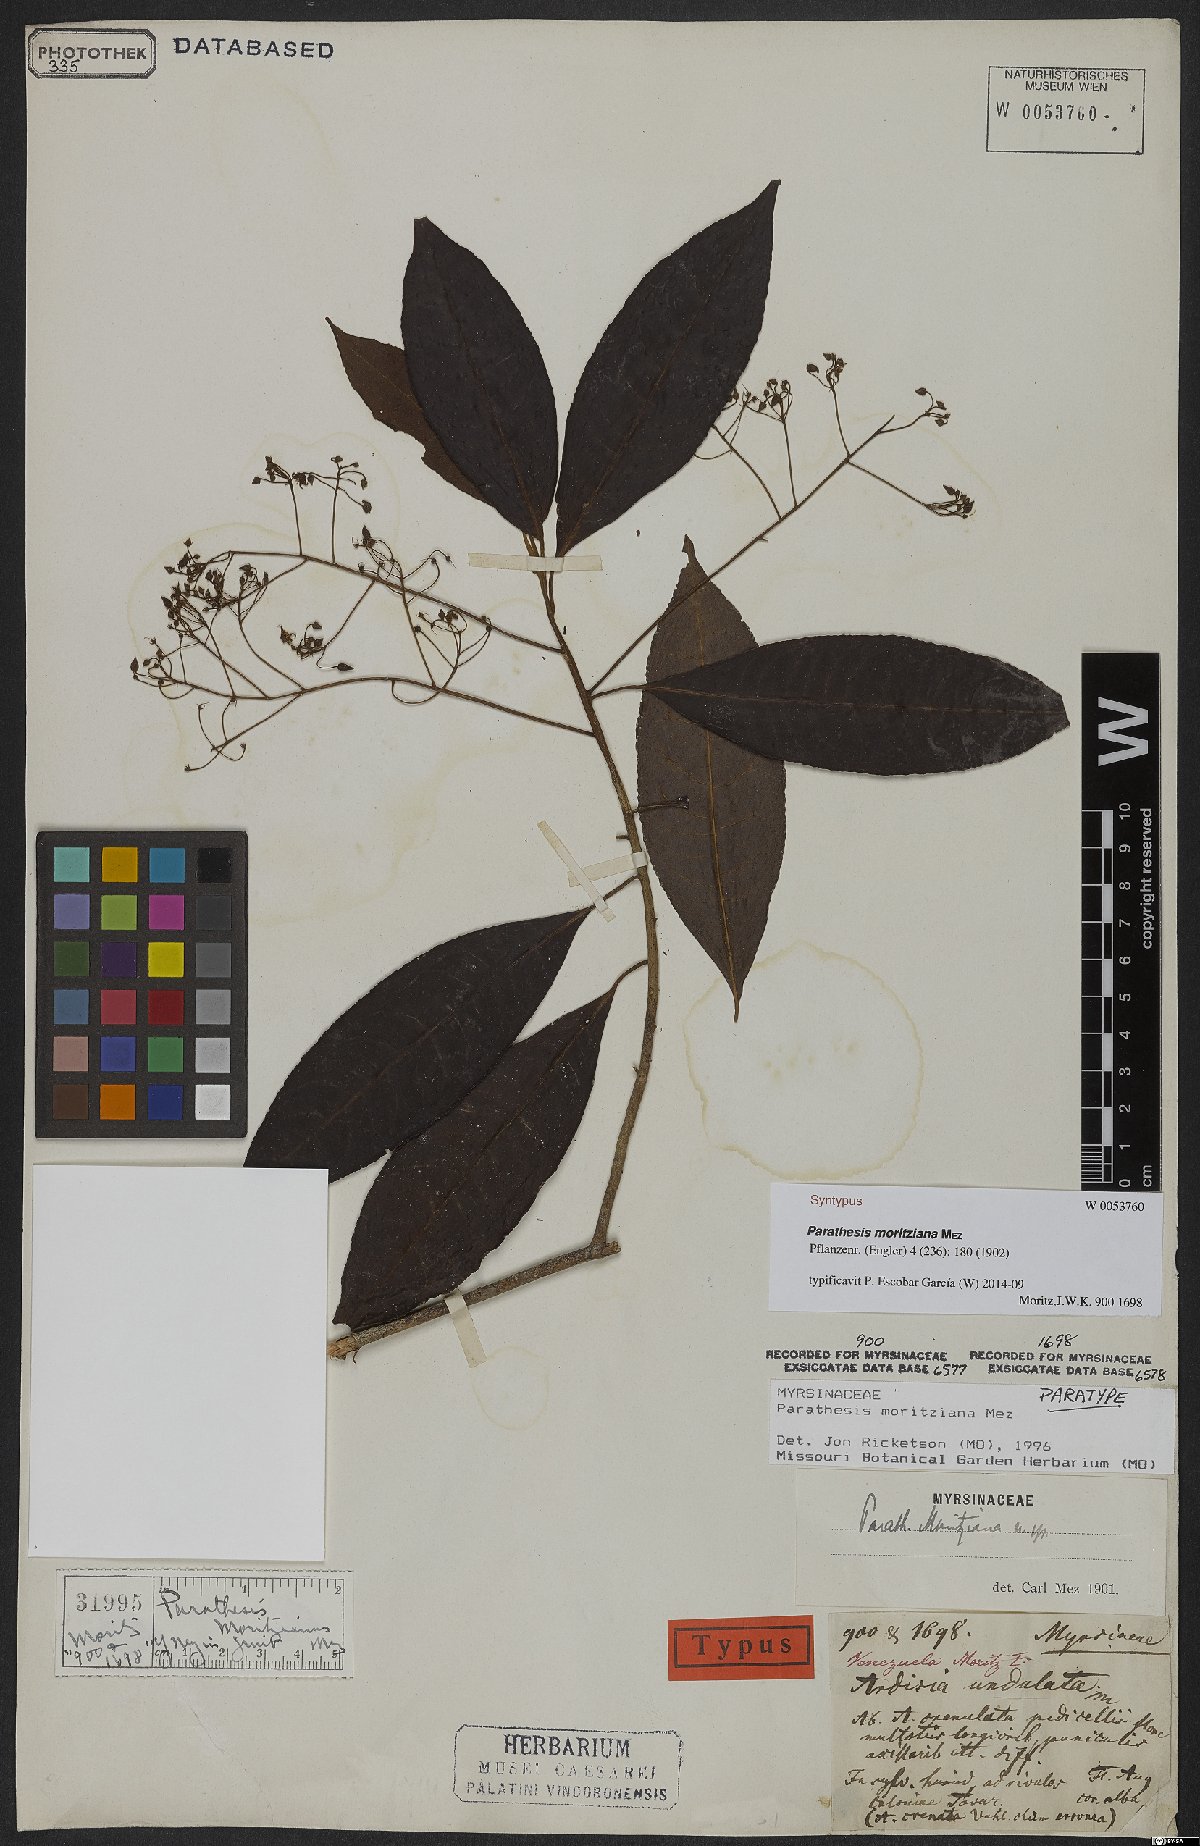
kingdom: Plantae
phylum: Tracheophyta
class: Magnoliopsida
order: Ericales
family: Primulaceae
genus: Parathesis
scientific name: Parathesis moritziana
